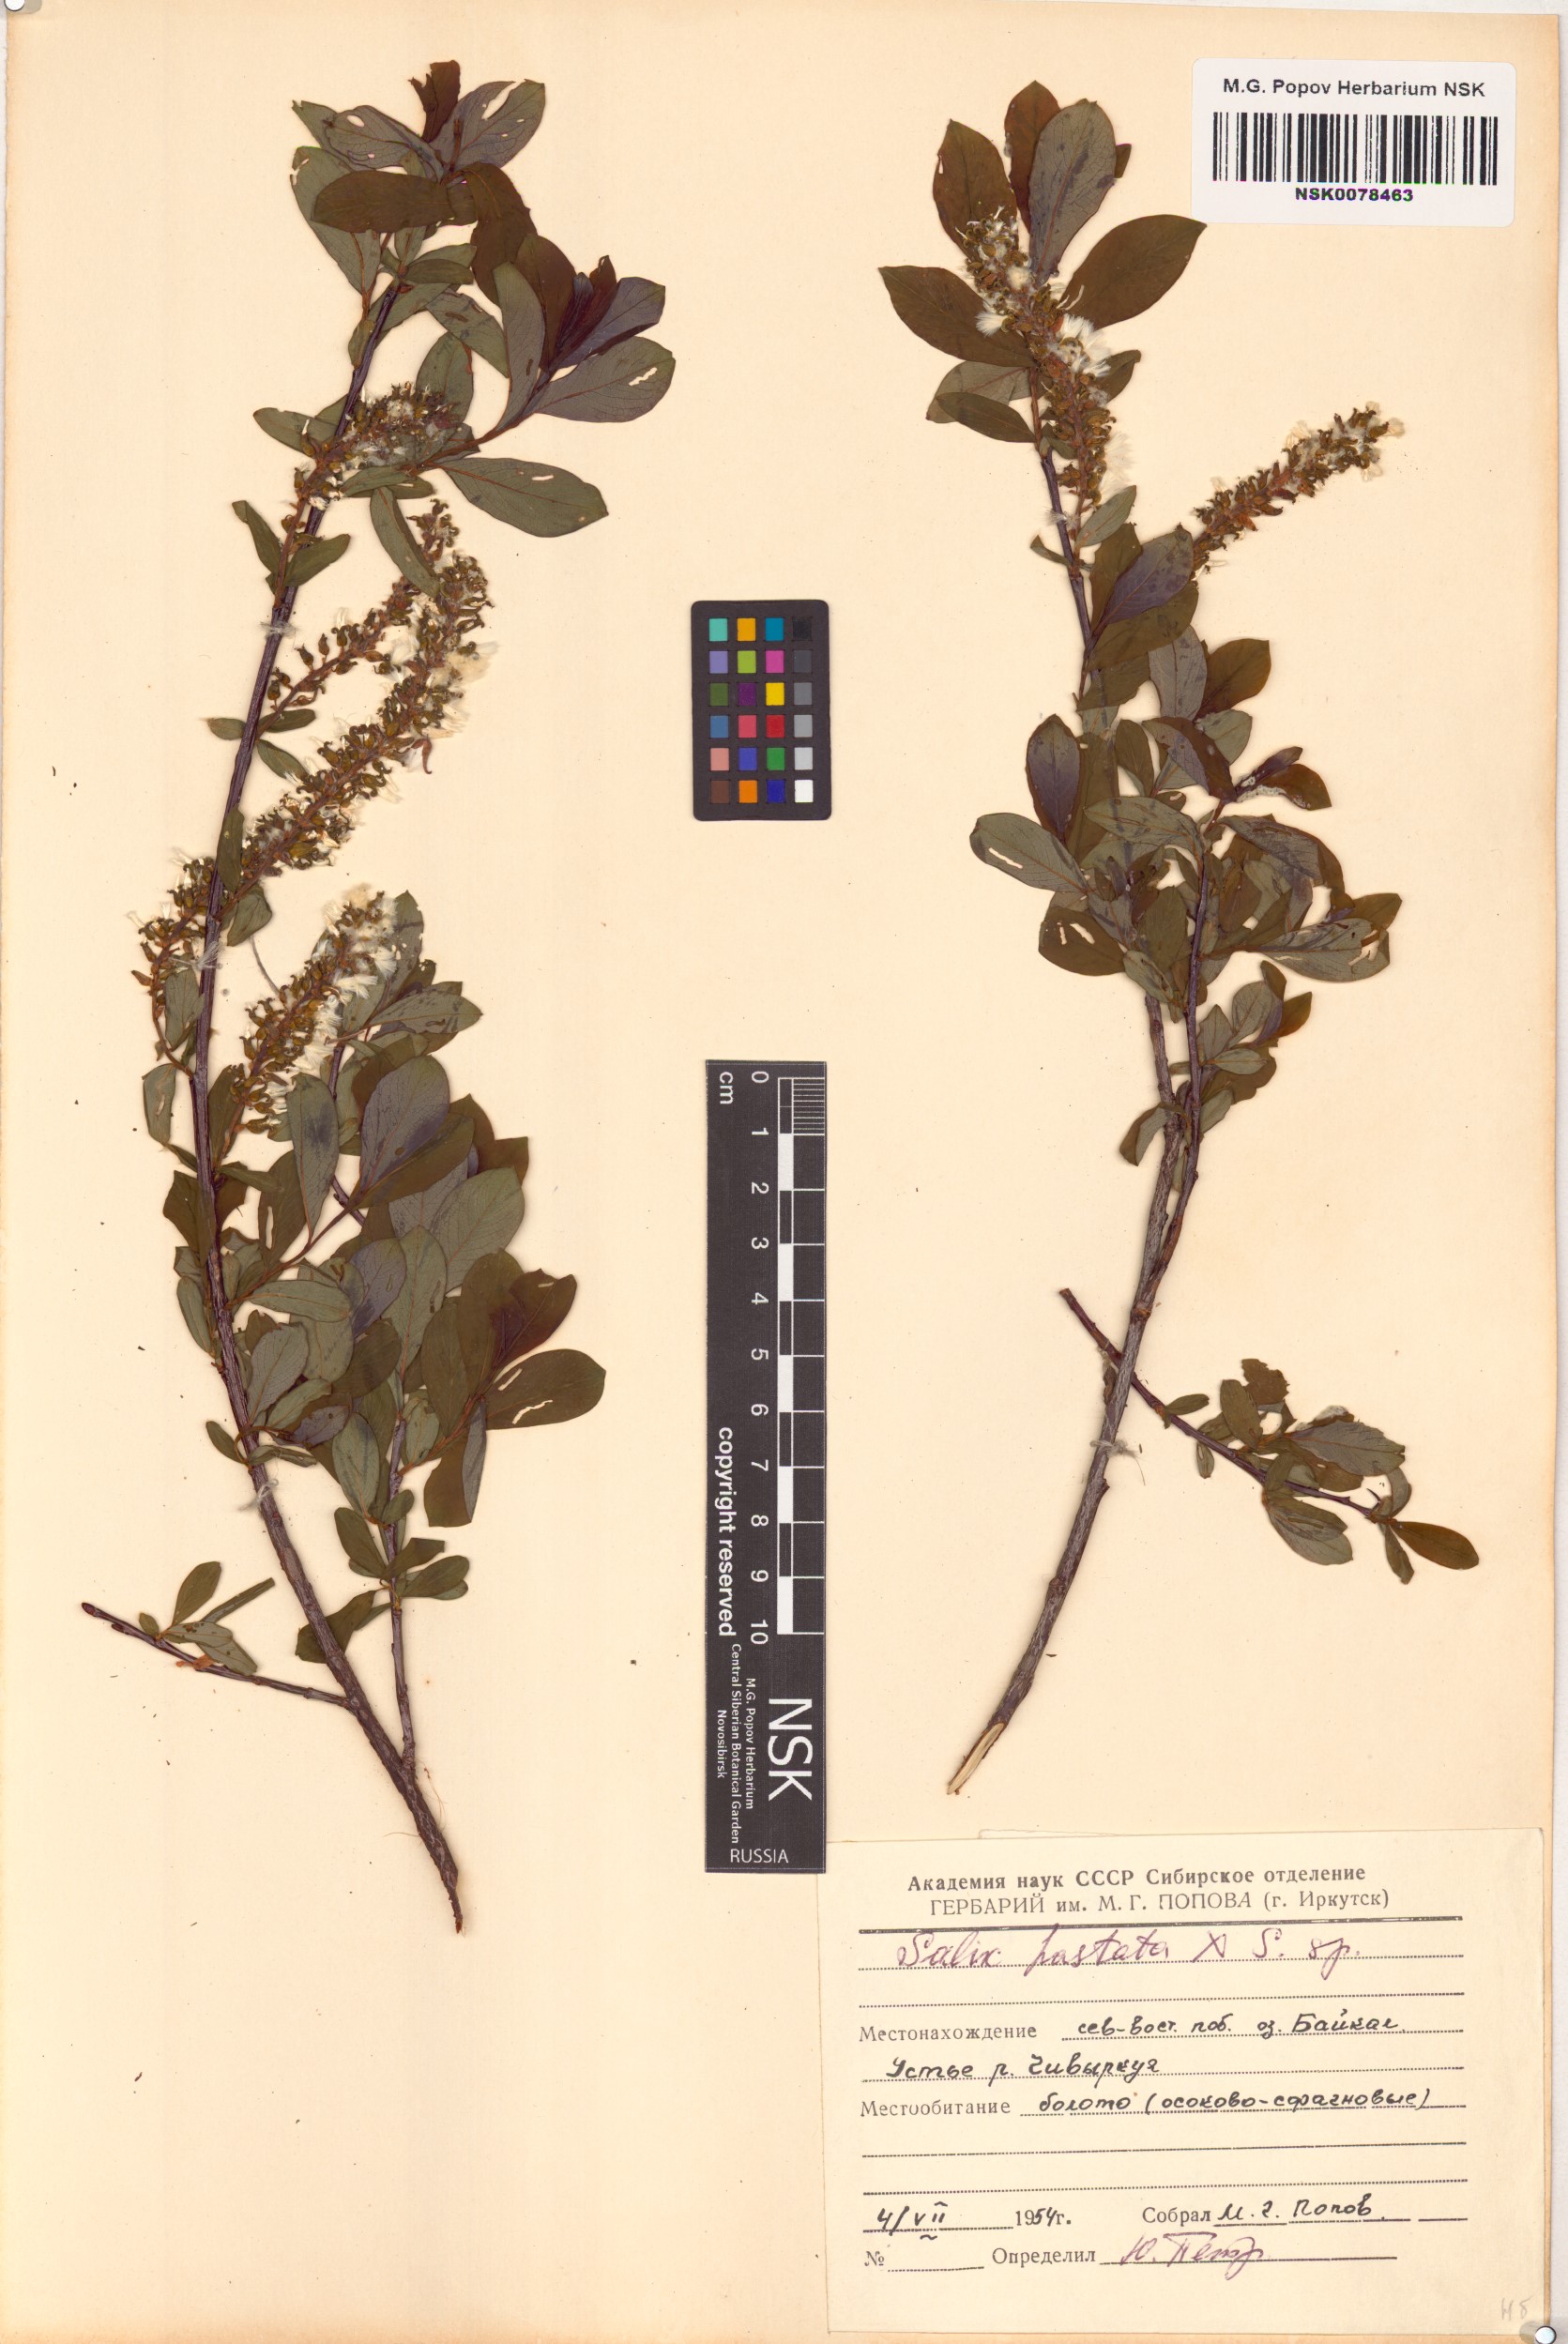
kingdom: Plantae
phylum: Tracheophyta
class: Magnoliopsida
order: Malpighiales
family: Salicaceae
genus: Salix
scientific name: Salix
